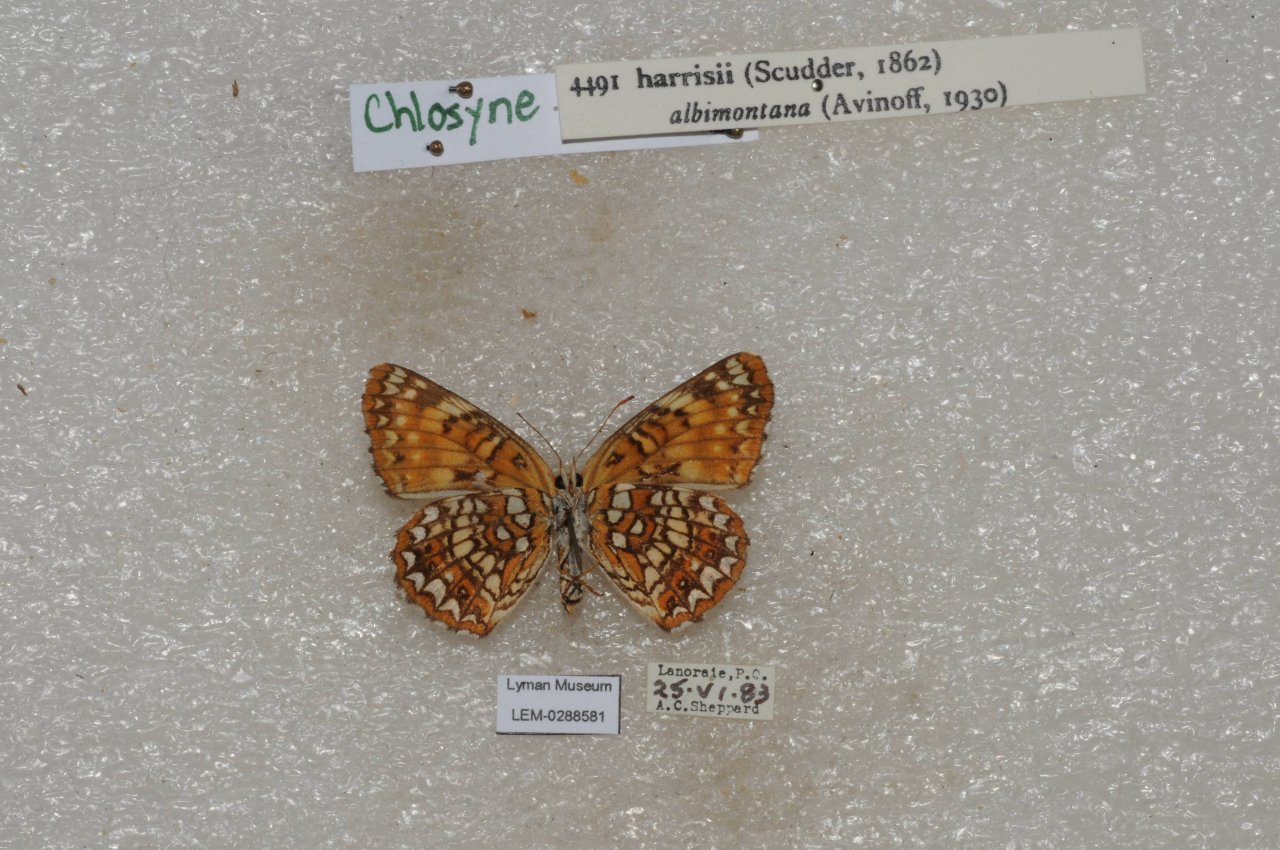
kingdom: Animalia
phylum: Arthropoda
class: Insecta
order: Lepidoptera
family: Nymphalidae
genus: Chlosyne
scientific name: Chlosyne harrisii
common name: Harris's Checkerspot
